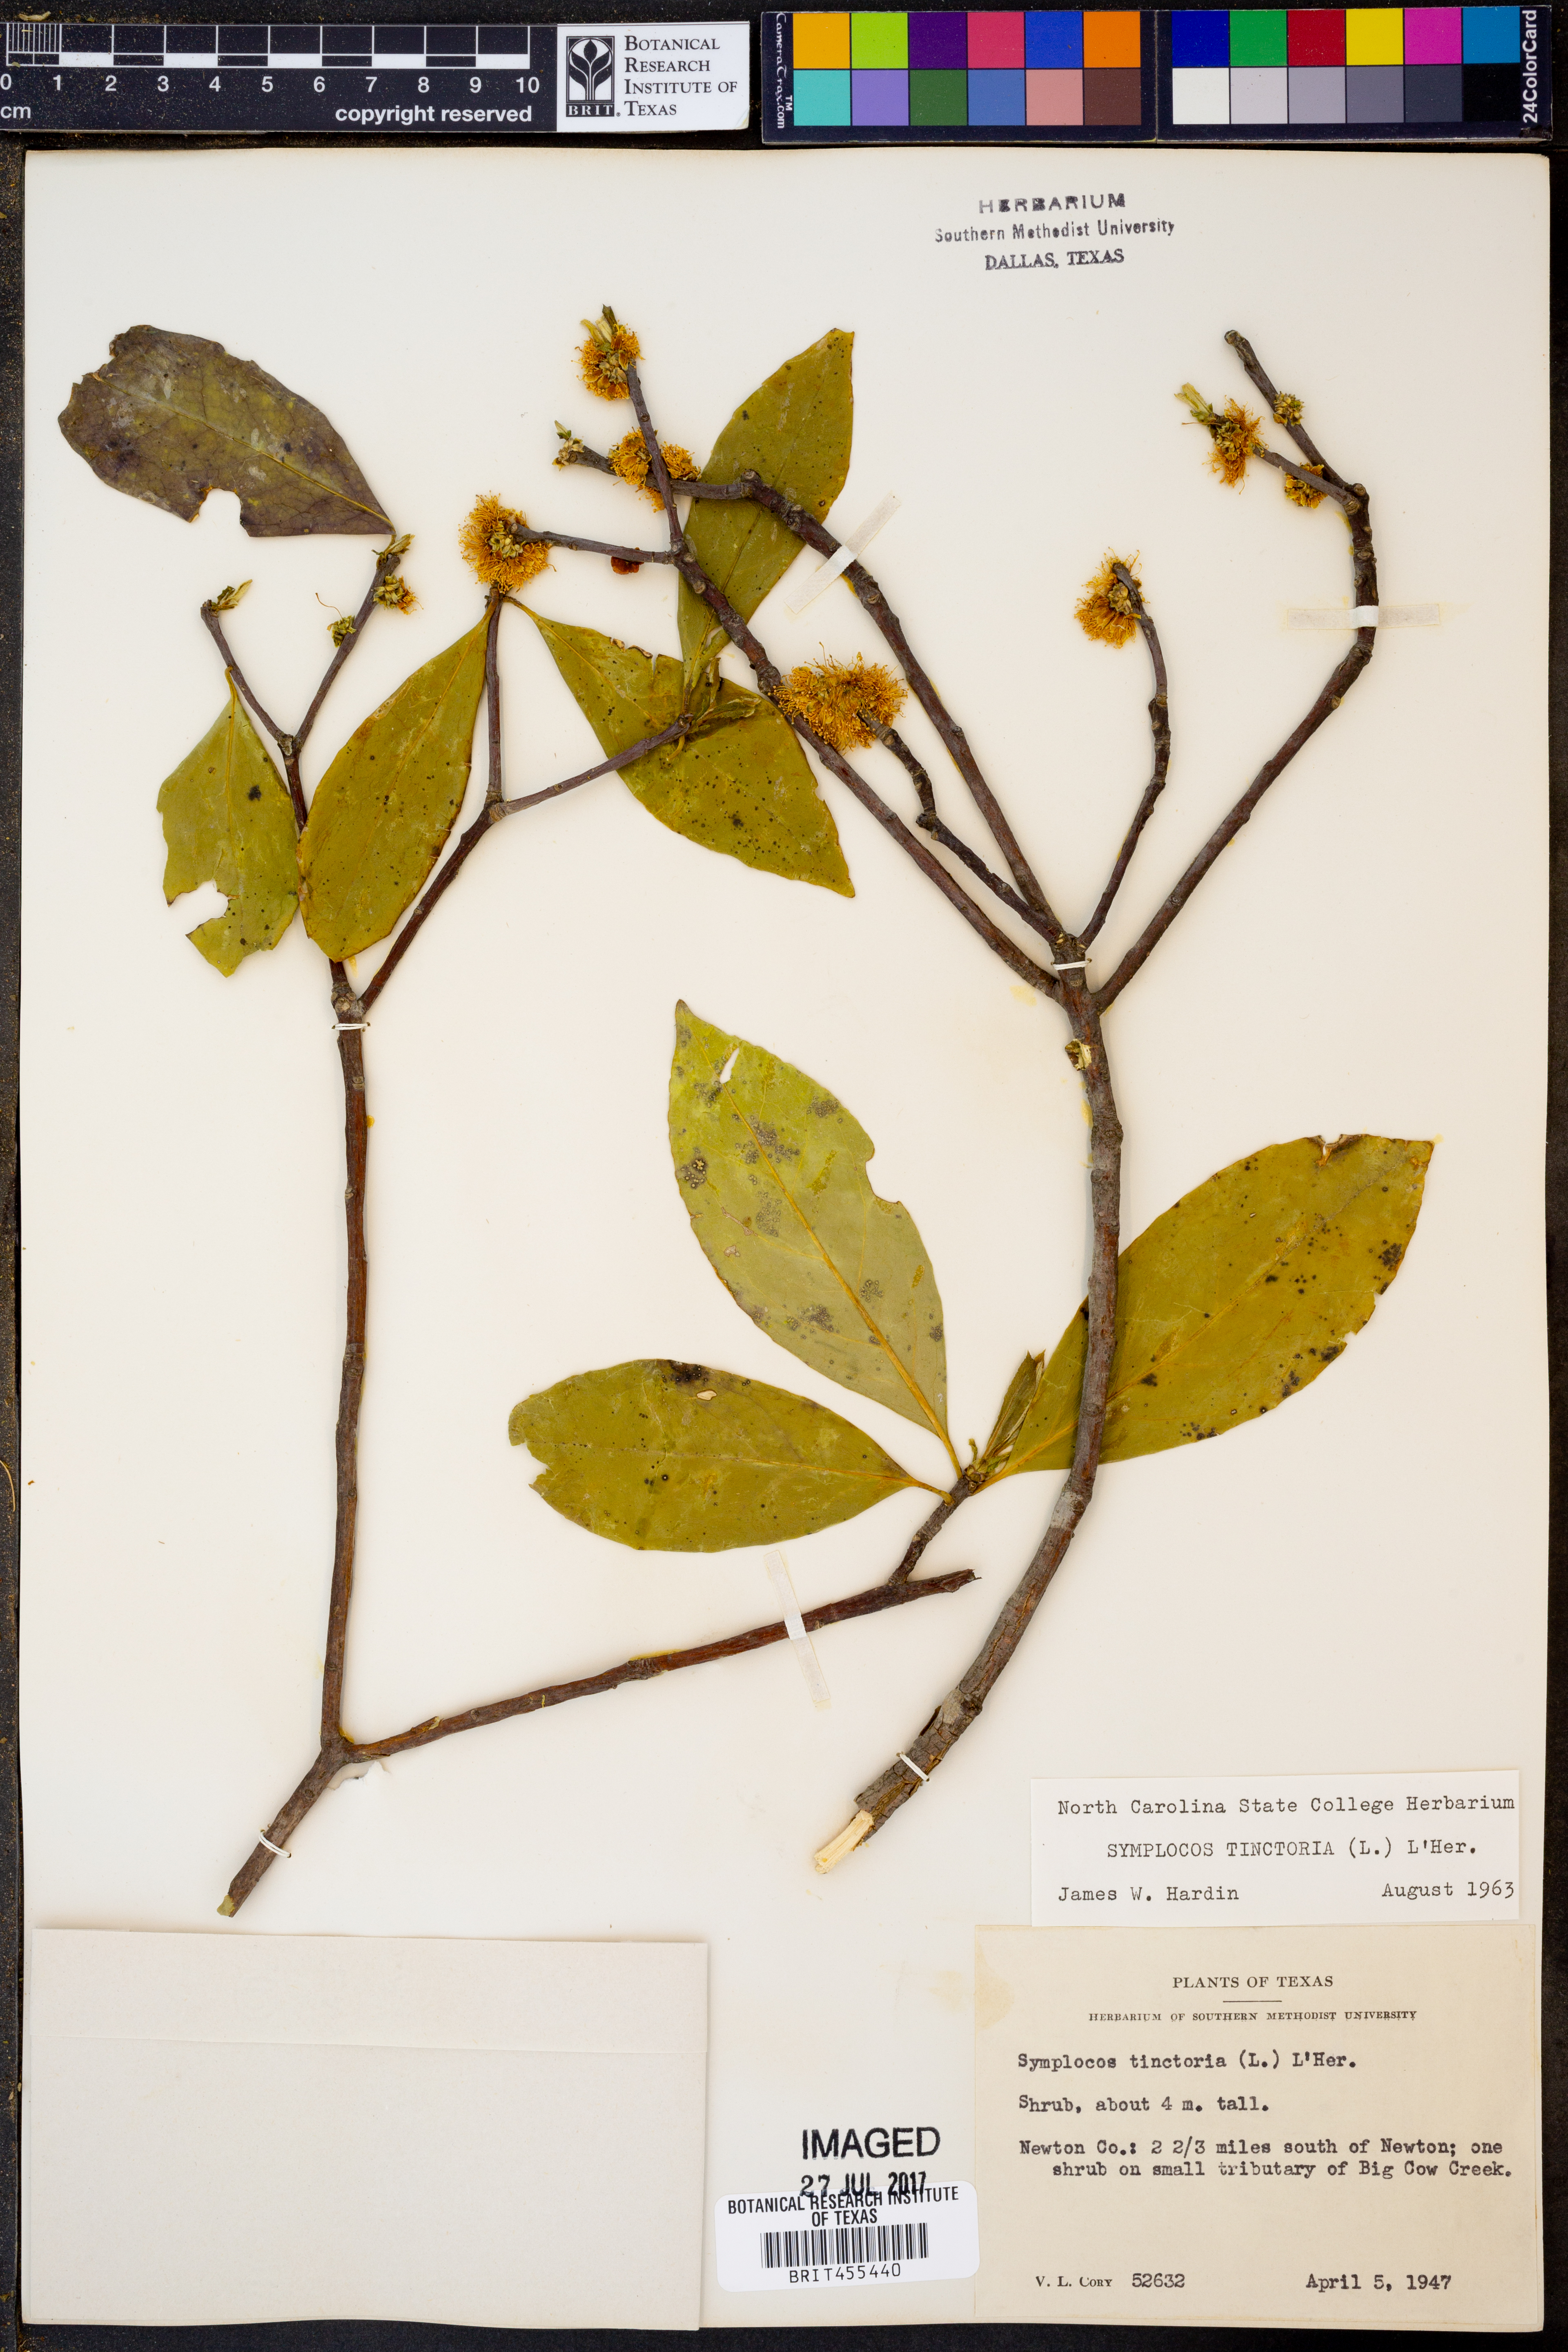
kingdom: Plantae
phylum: Tracheophyta
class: Magnoliopsida
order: Ericales
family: Symplocaceae
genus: Symplocos
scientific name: Symplocos tinctoria
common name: Horse-sugar
